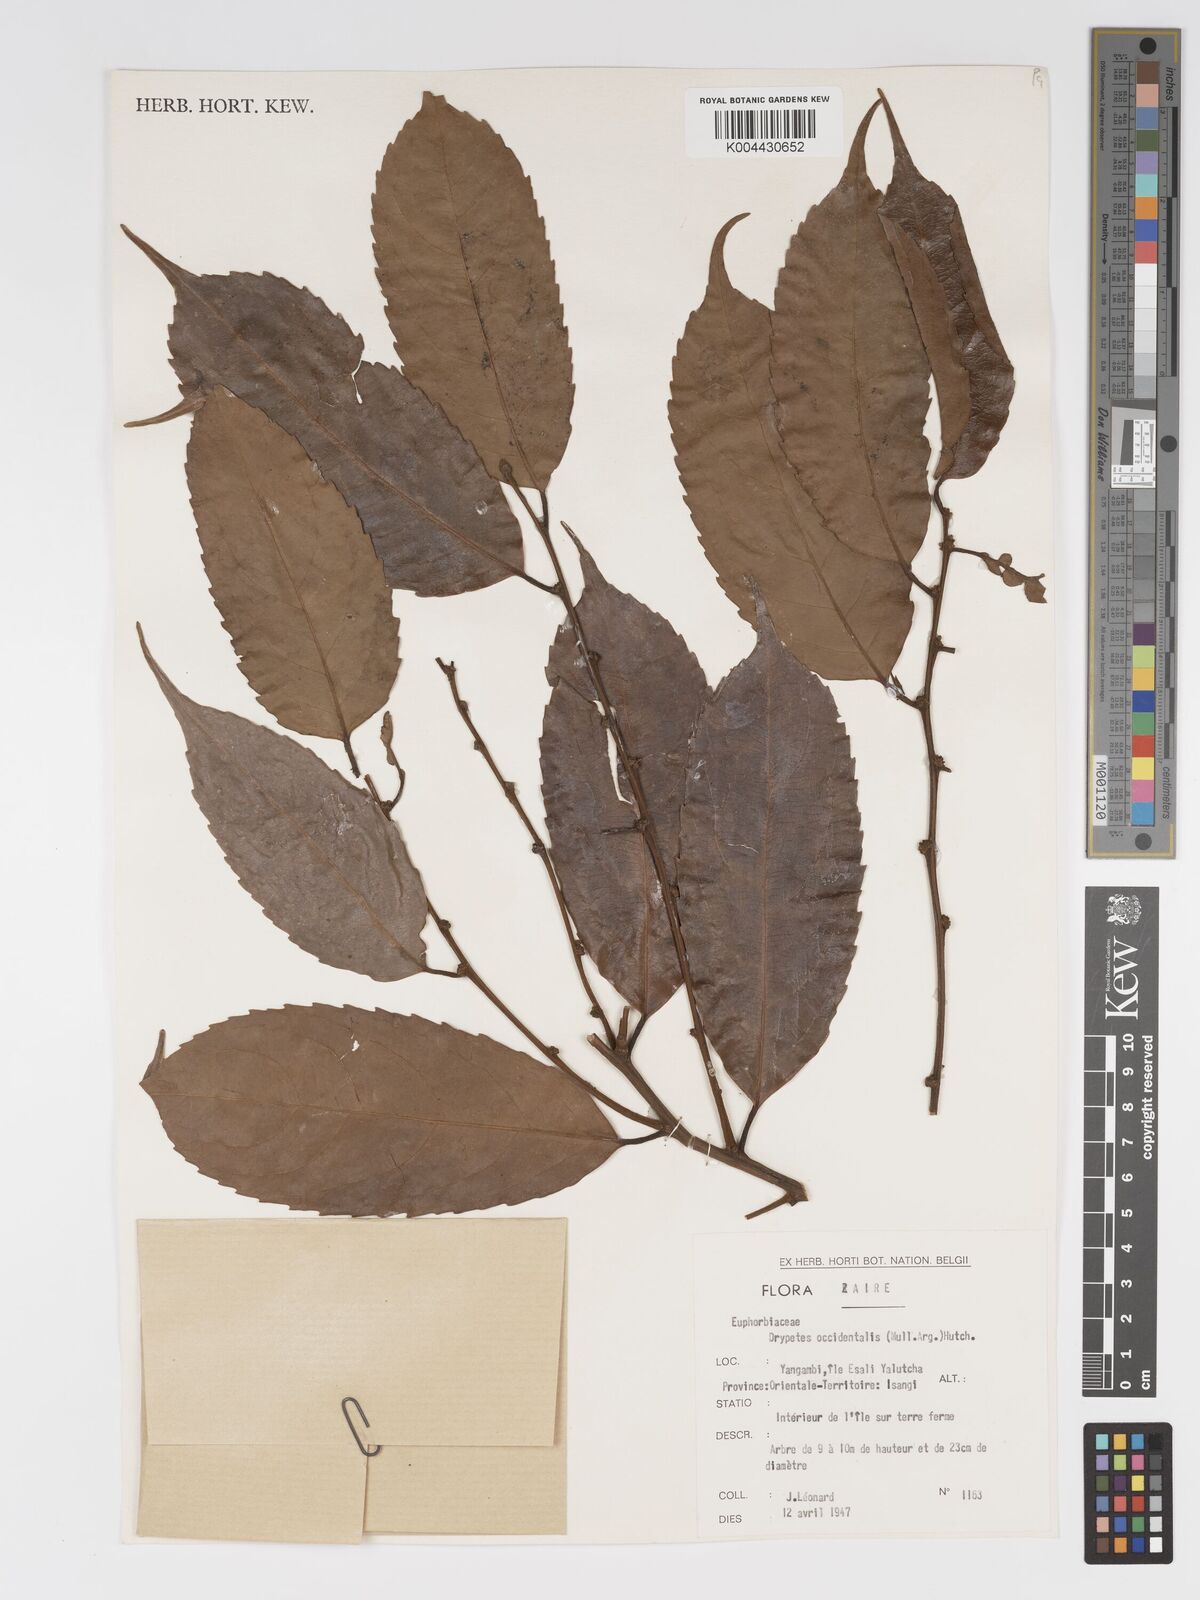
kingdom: Plantae
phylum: Tracheophyta
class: Magnoliopsida
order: Malpighiales
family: Putranjivaceae
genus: Drypetes
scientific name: Drypetes occidentalis
